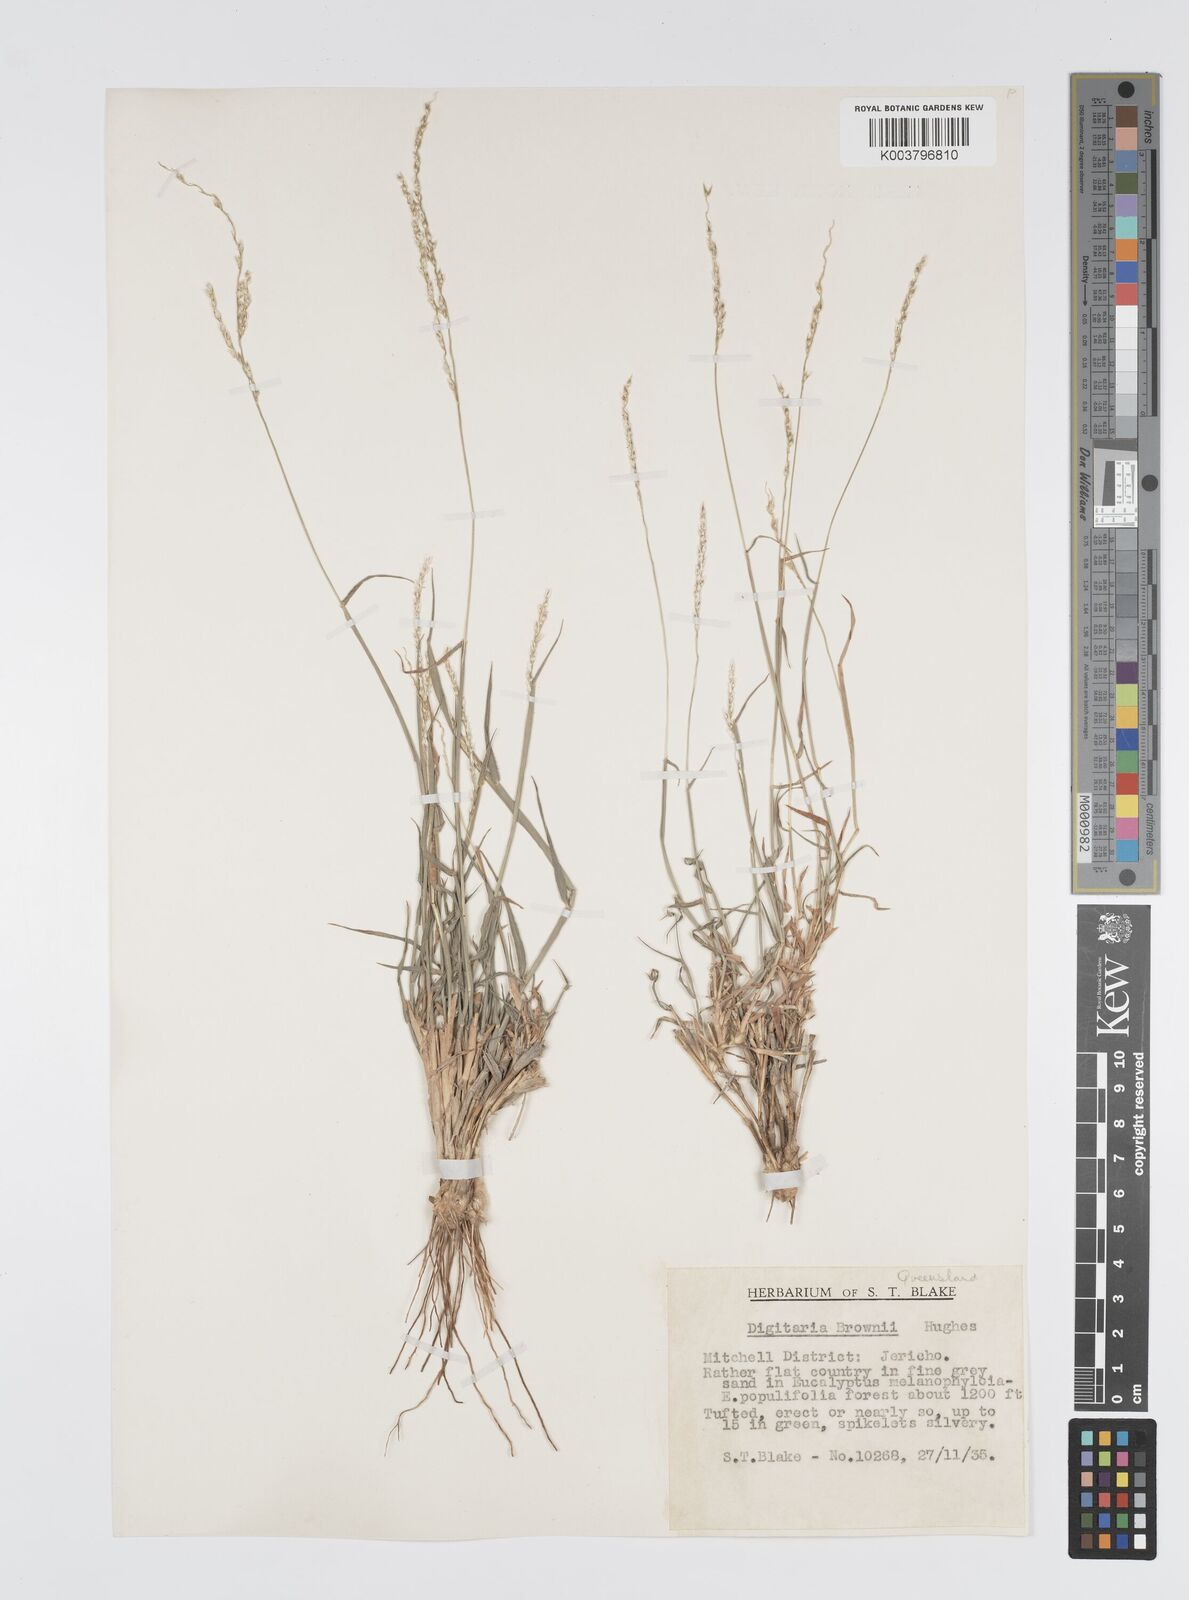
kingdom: Plantae
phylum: Tracheophyta
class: Liliopsida
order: Poales
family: Poaceae
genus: Digitaria
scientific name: Digitaria brownii
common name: Cotton grass
